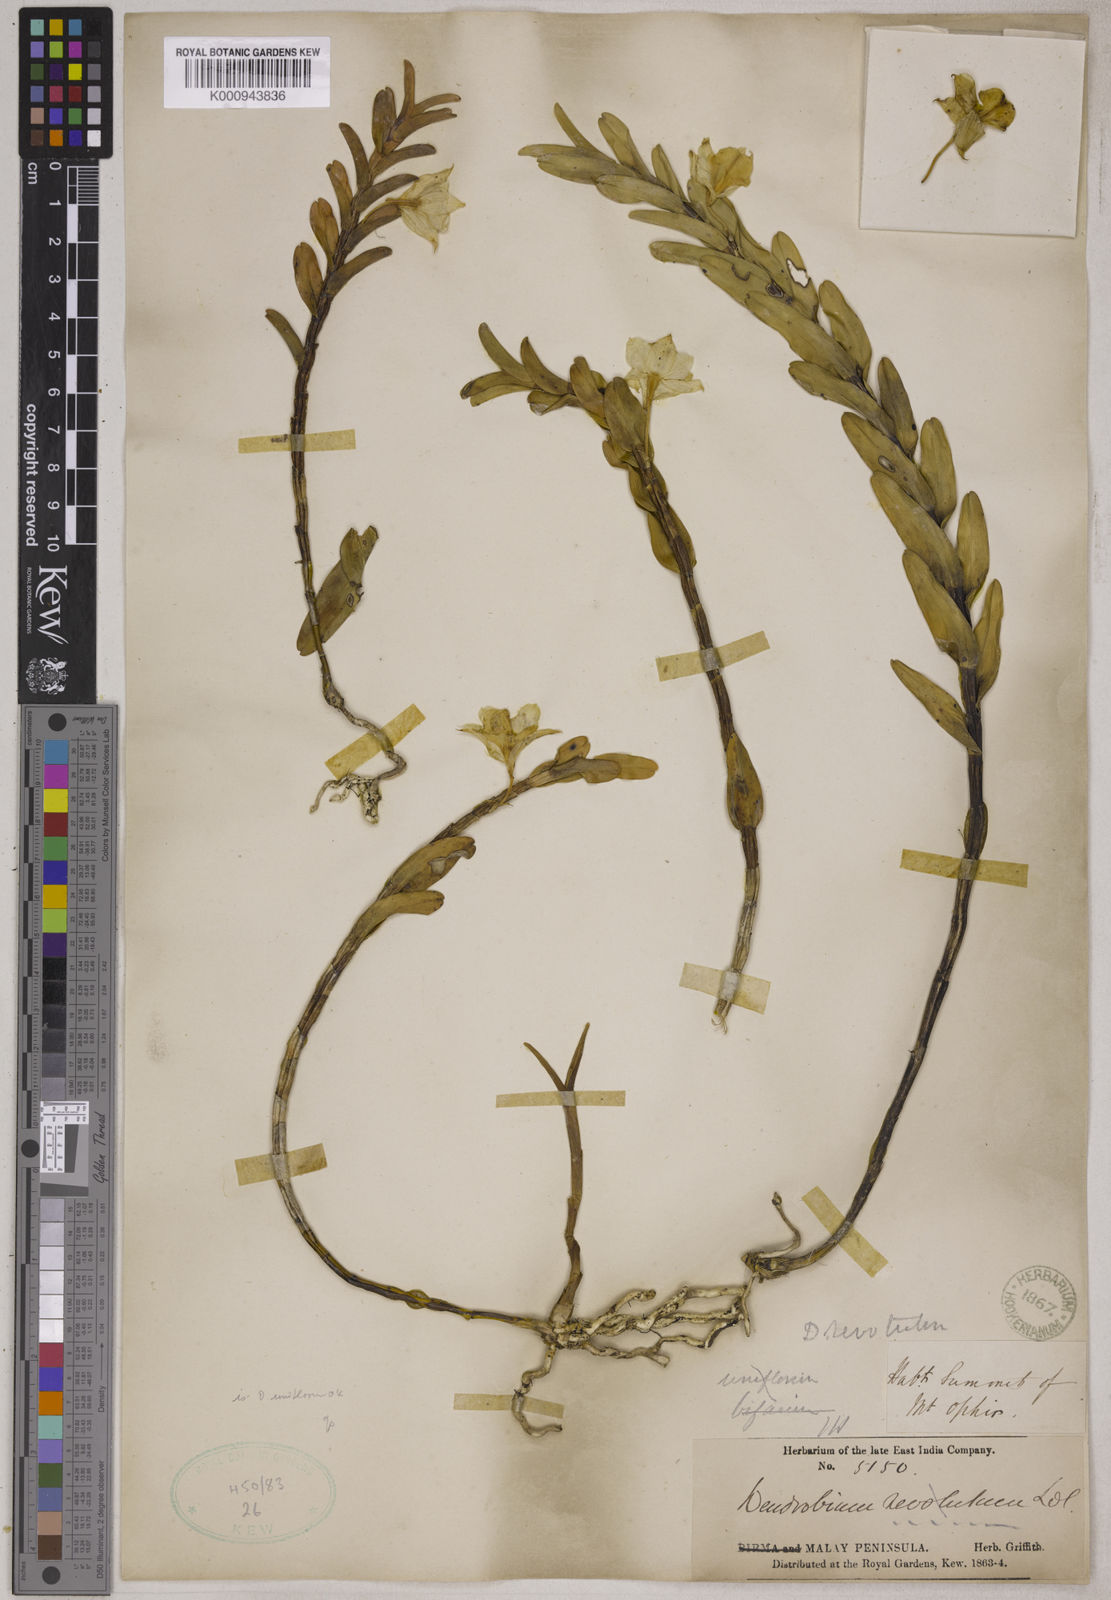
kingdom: Plantae
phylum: Tracheophyta
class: Liliopsida
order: Asparagales
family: Orchidaceae
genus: Dendrobium
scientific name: Dendrobium uniflorum
